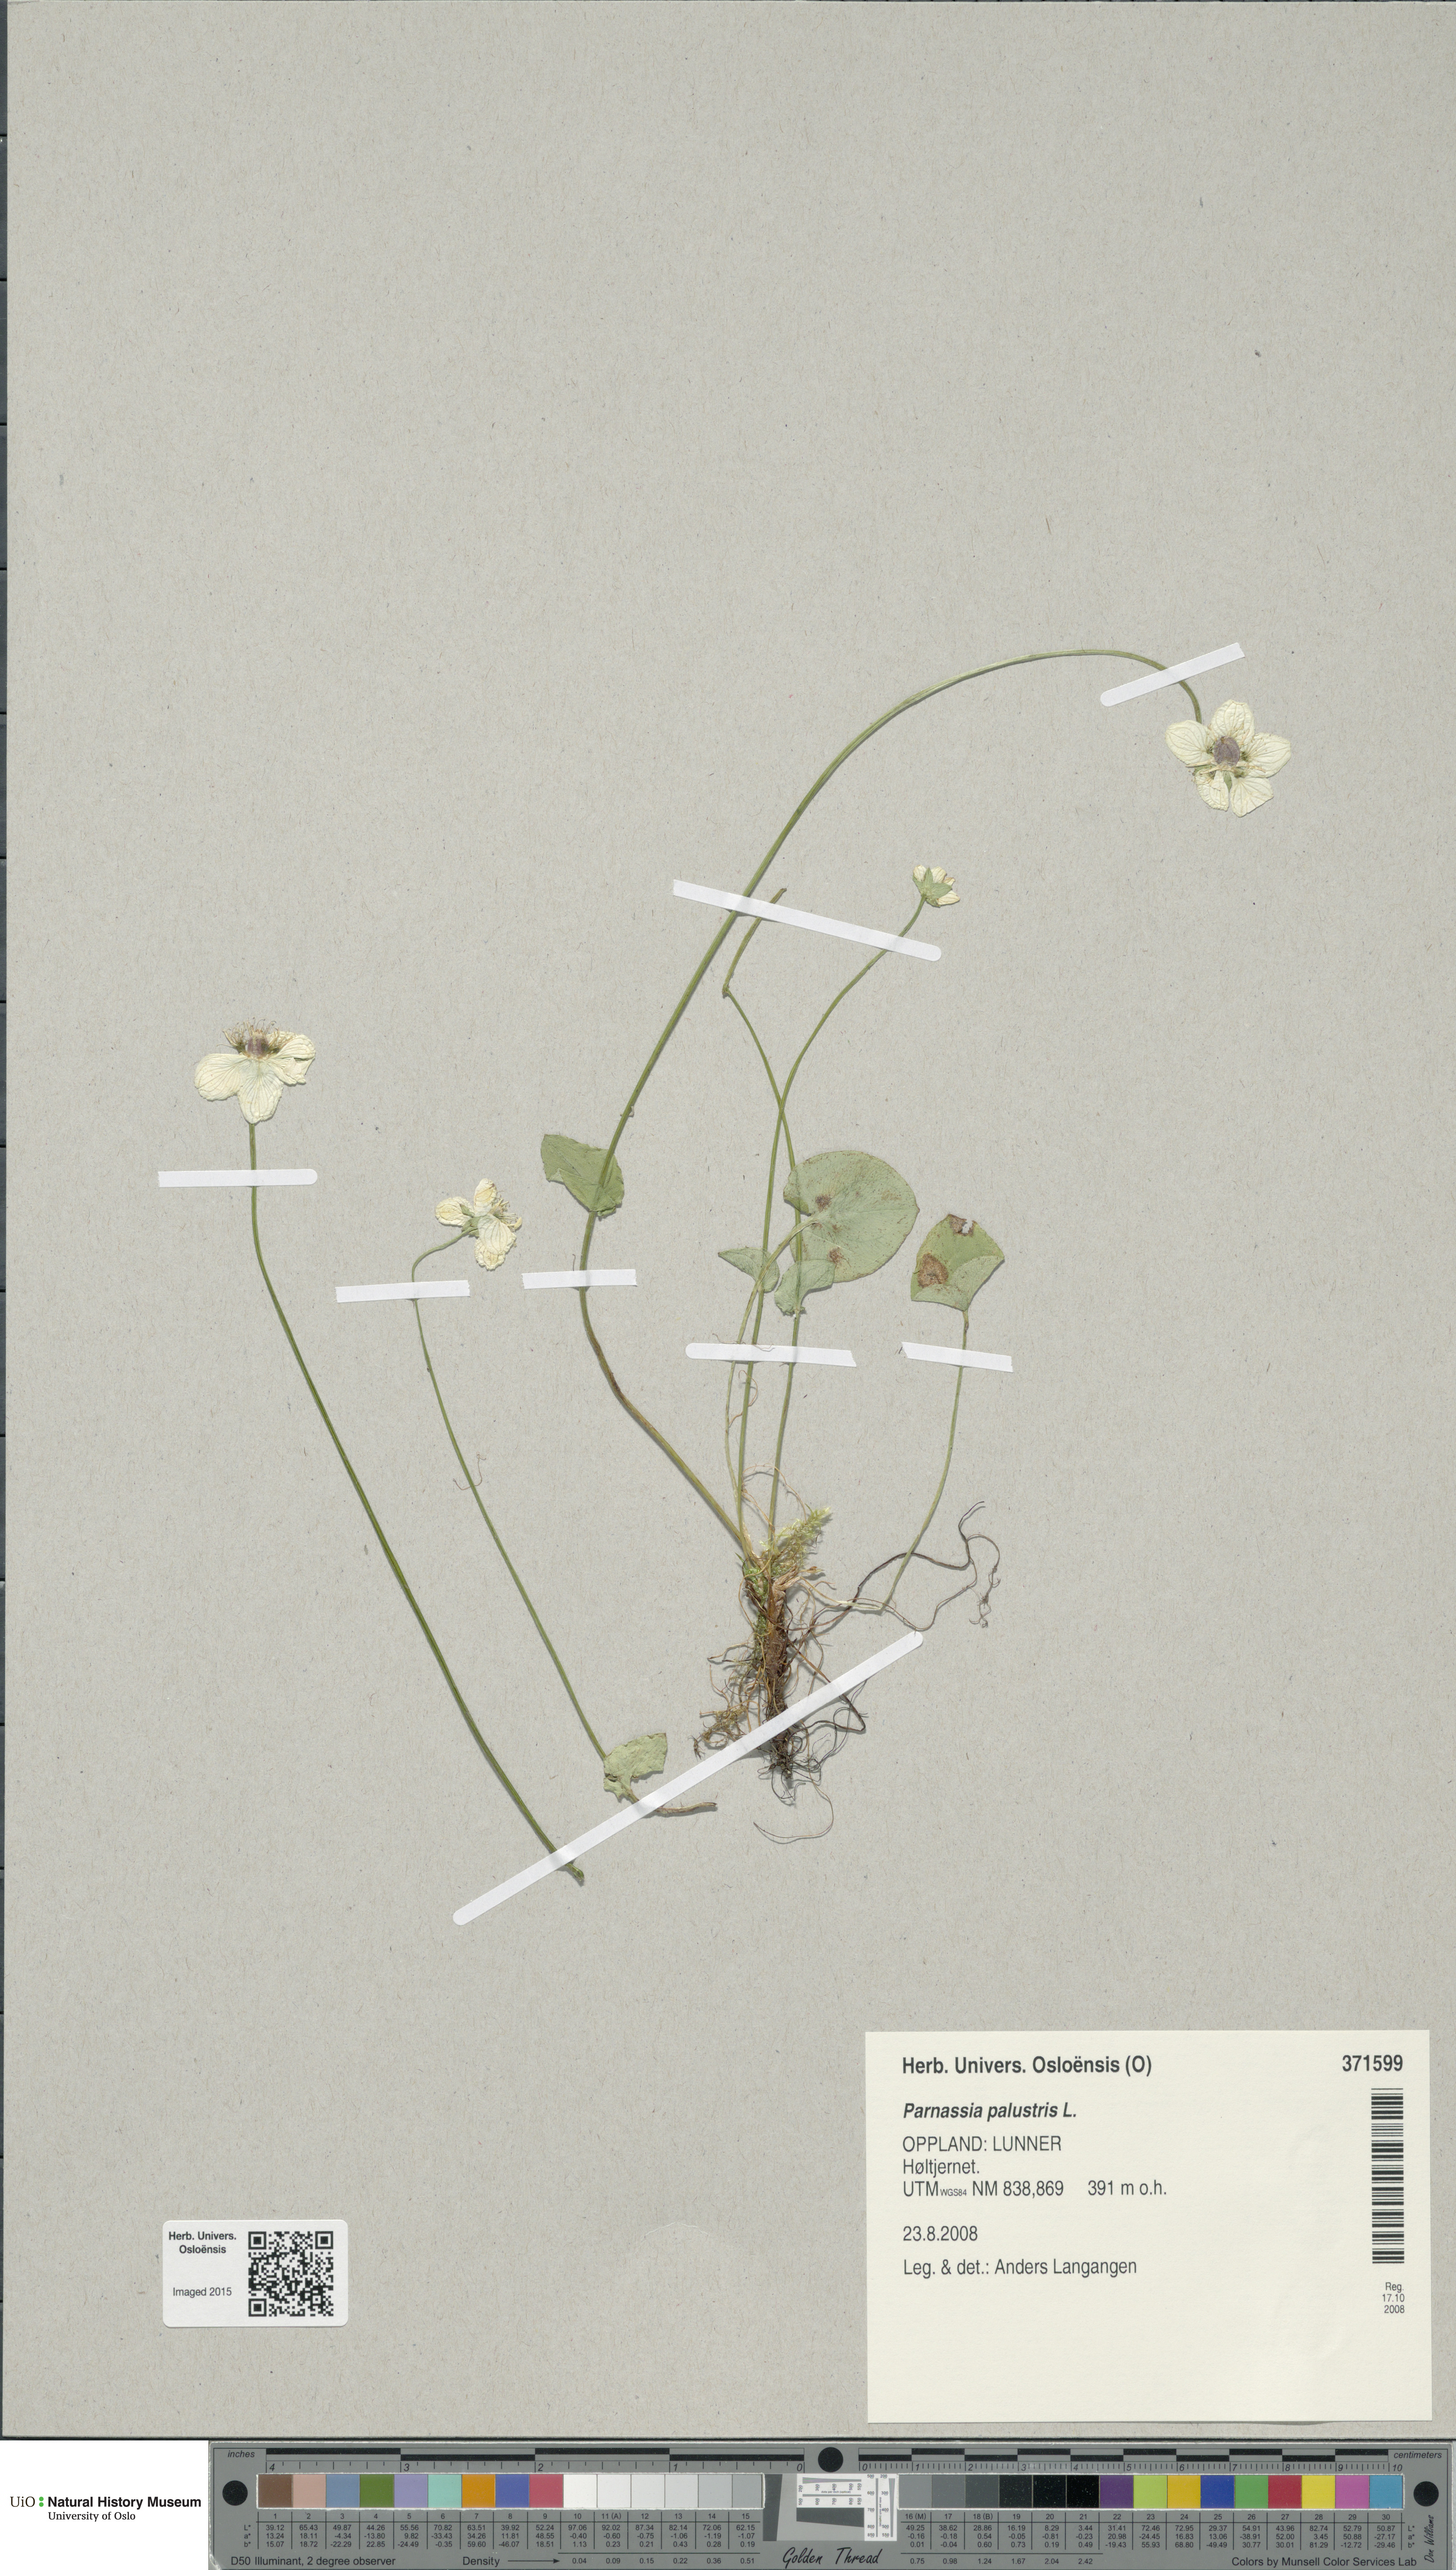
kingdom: Plantae
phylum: Tracheophyta
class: Magnoliopsida
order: Celastrales
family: Parnassiaceae
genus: Parnassia
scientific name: Parnassia palustris
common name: Grass-of-parnassus
